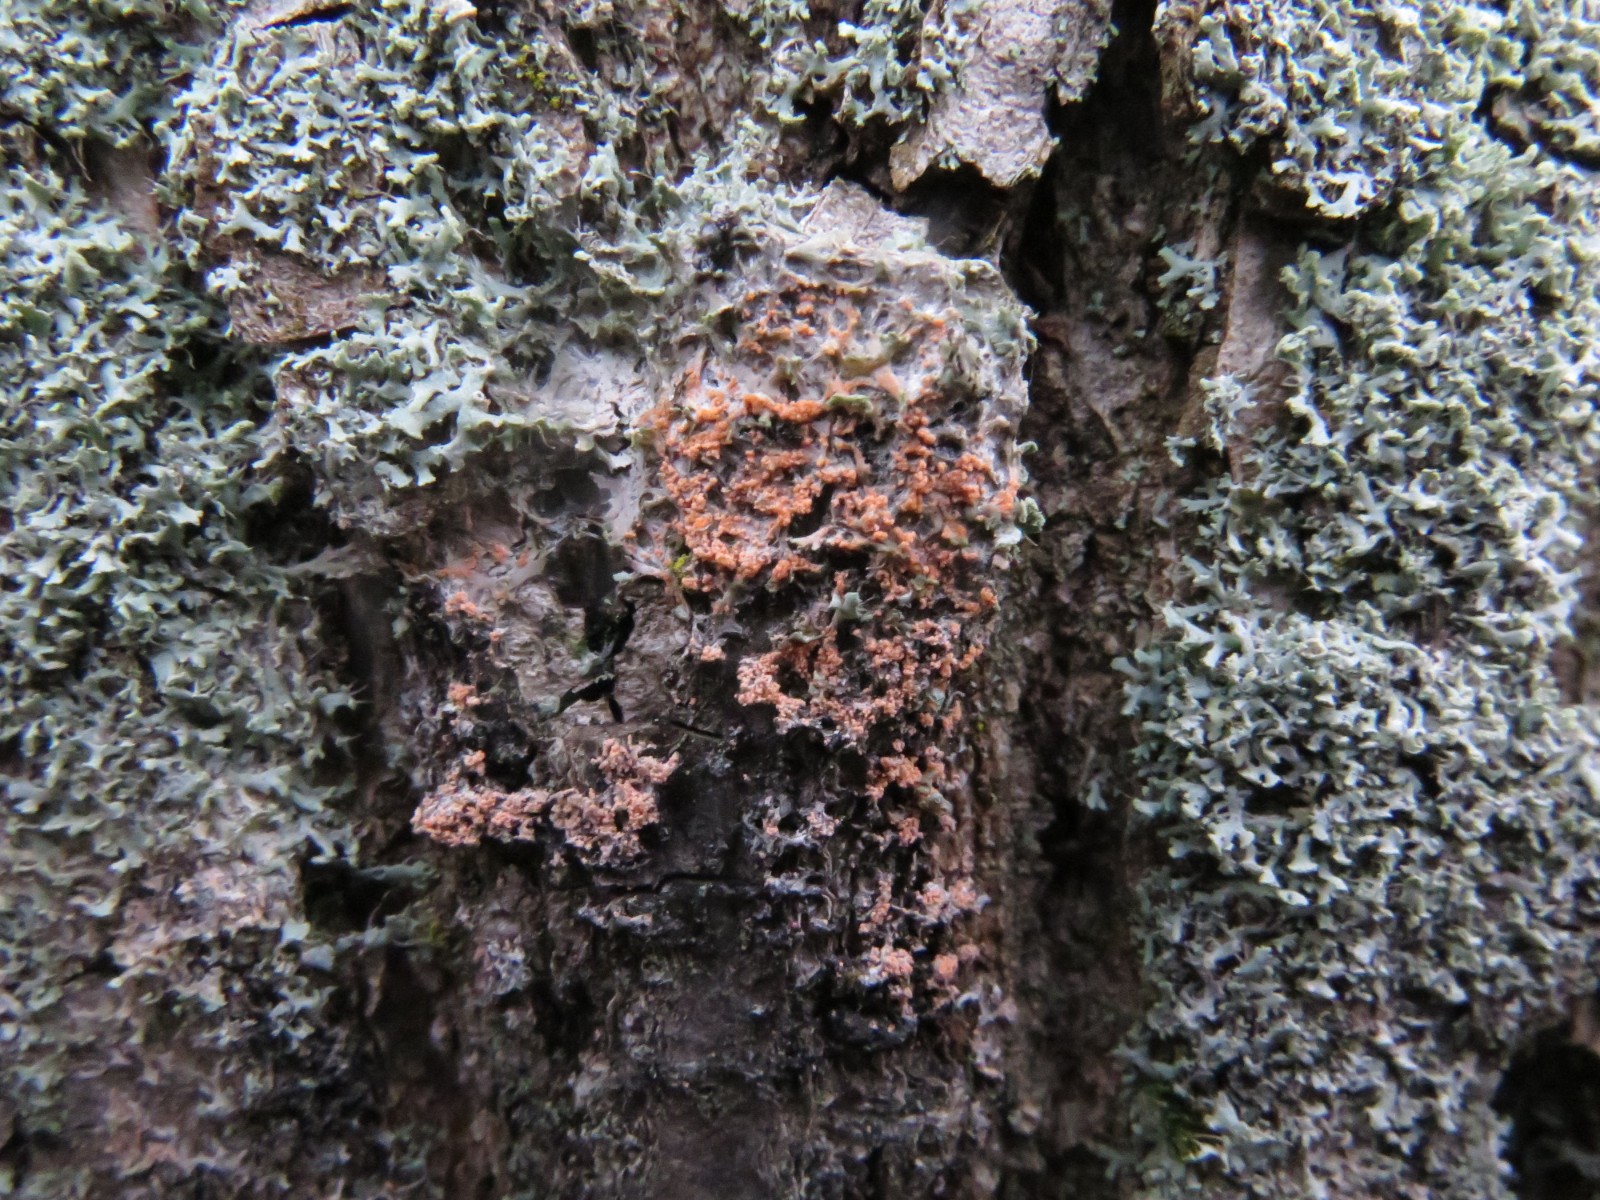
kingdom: Fungi
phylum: Basidiomycota
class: Agaricomycetes
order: Corticiales
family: Corticiaceae
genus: Erythricium
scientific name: Erythricium aurantiacum
